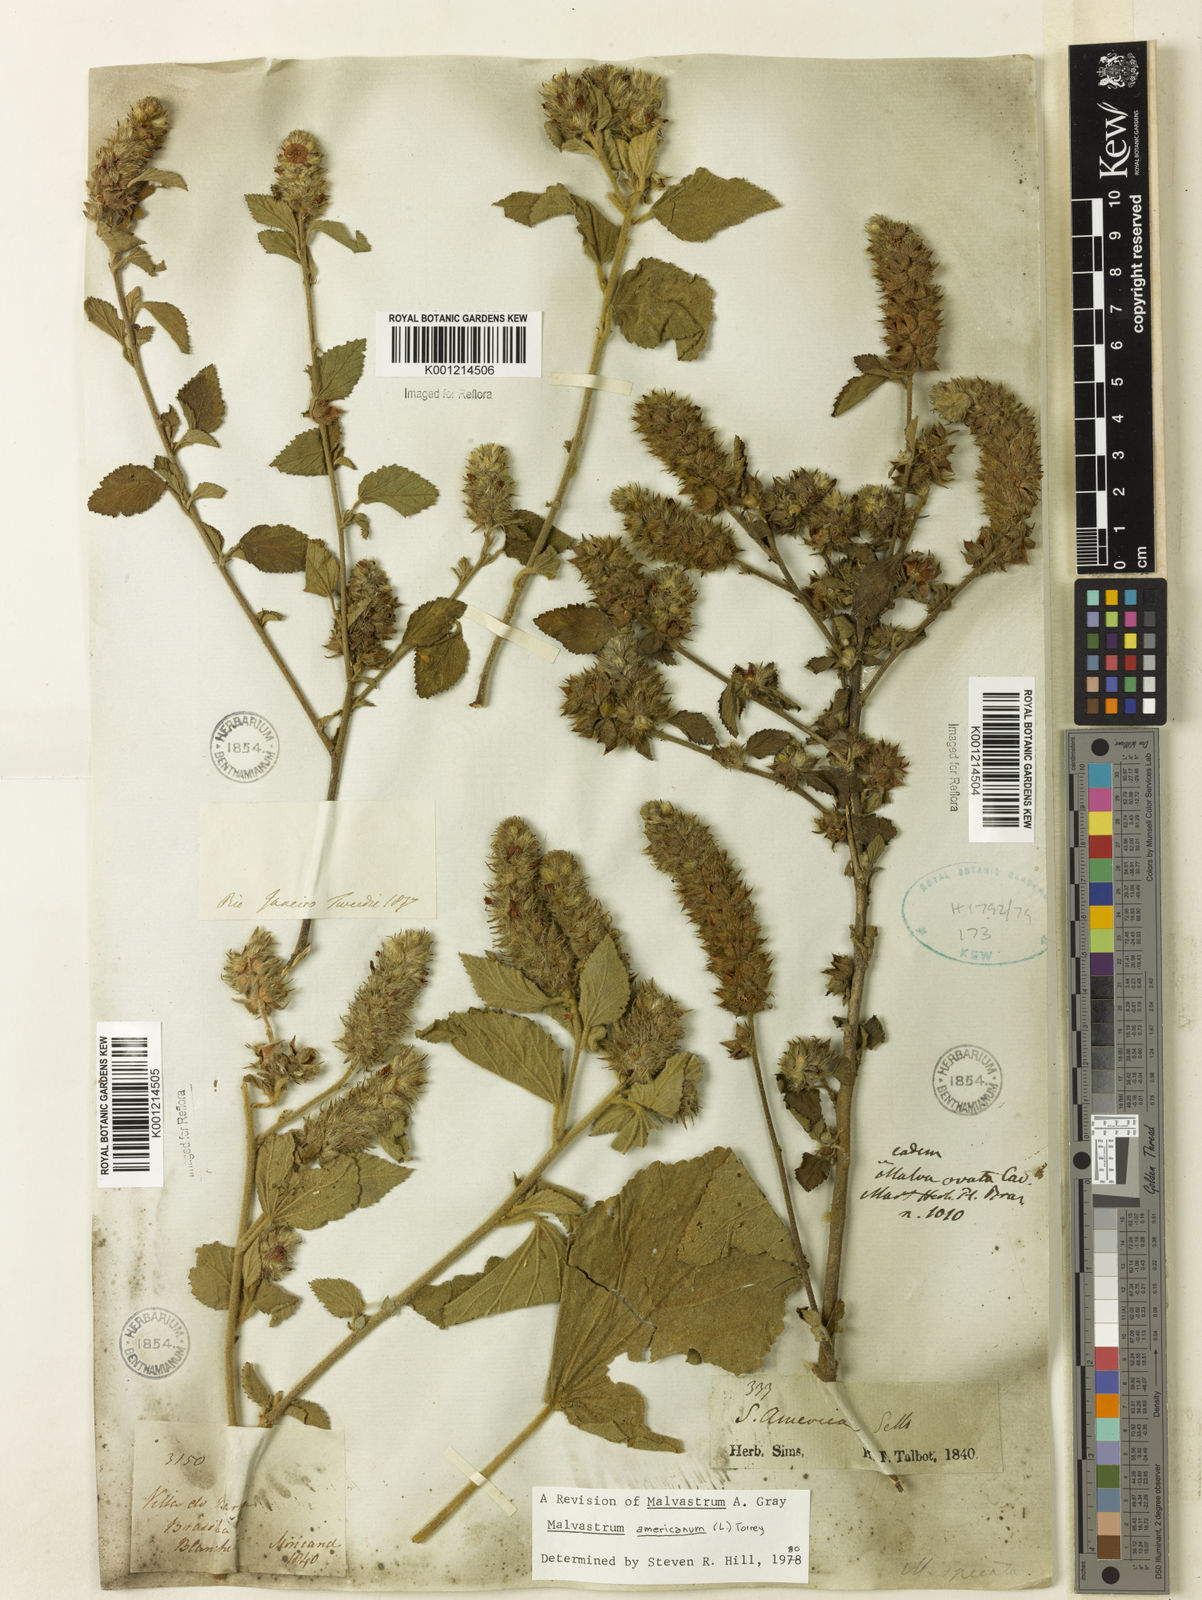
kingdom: Plantae
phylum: Tracheophyta
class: Magnoliopsida
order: Malvales
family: Malvaceae
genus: Malvastrum
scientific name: Malvastrum americanum
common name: Spiked malvastrum
